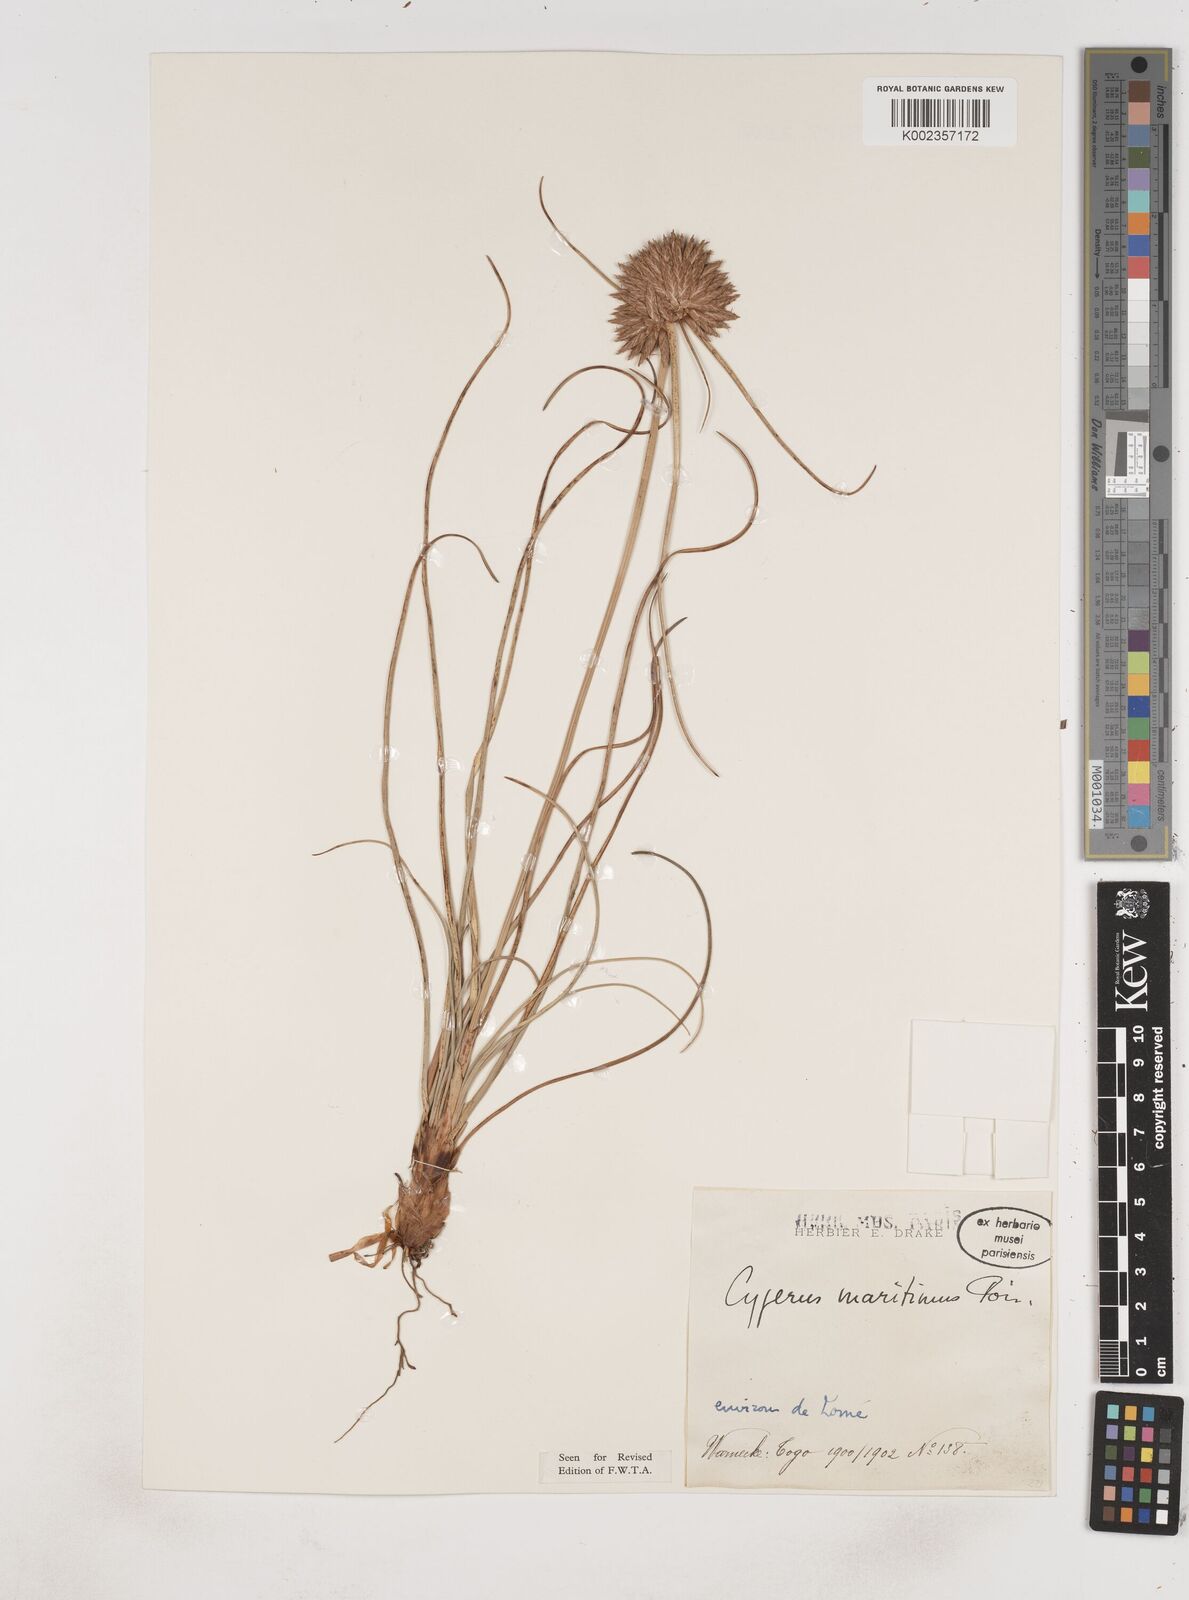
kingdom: Plantae
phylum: Tracheophyta
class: Liliopsida
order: Poales
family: Cyperaceae
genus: Cyperus
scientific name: Cyperus crassipes
